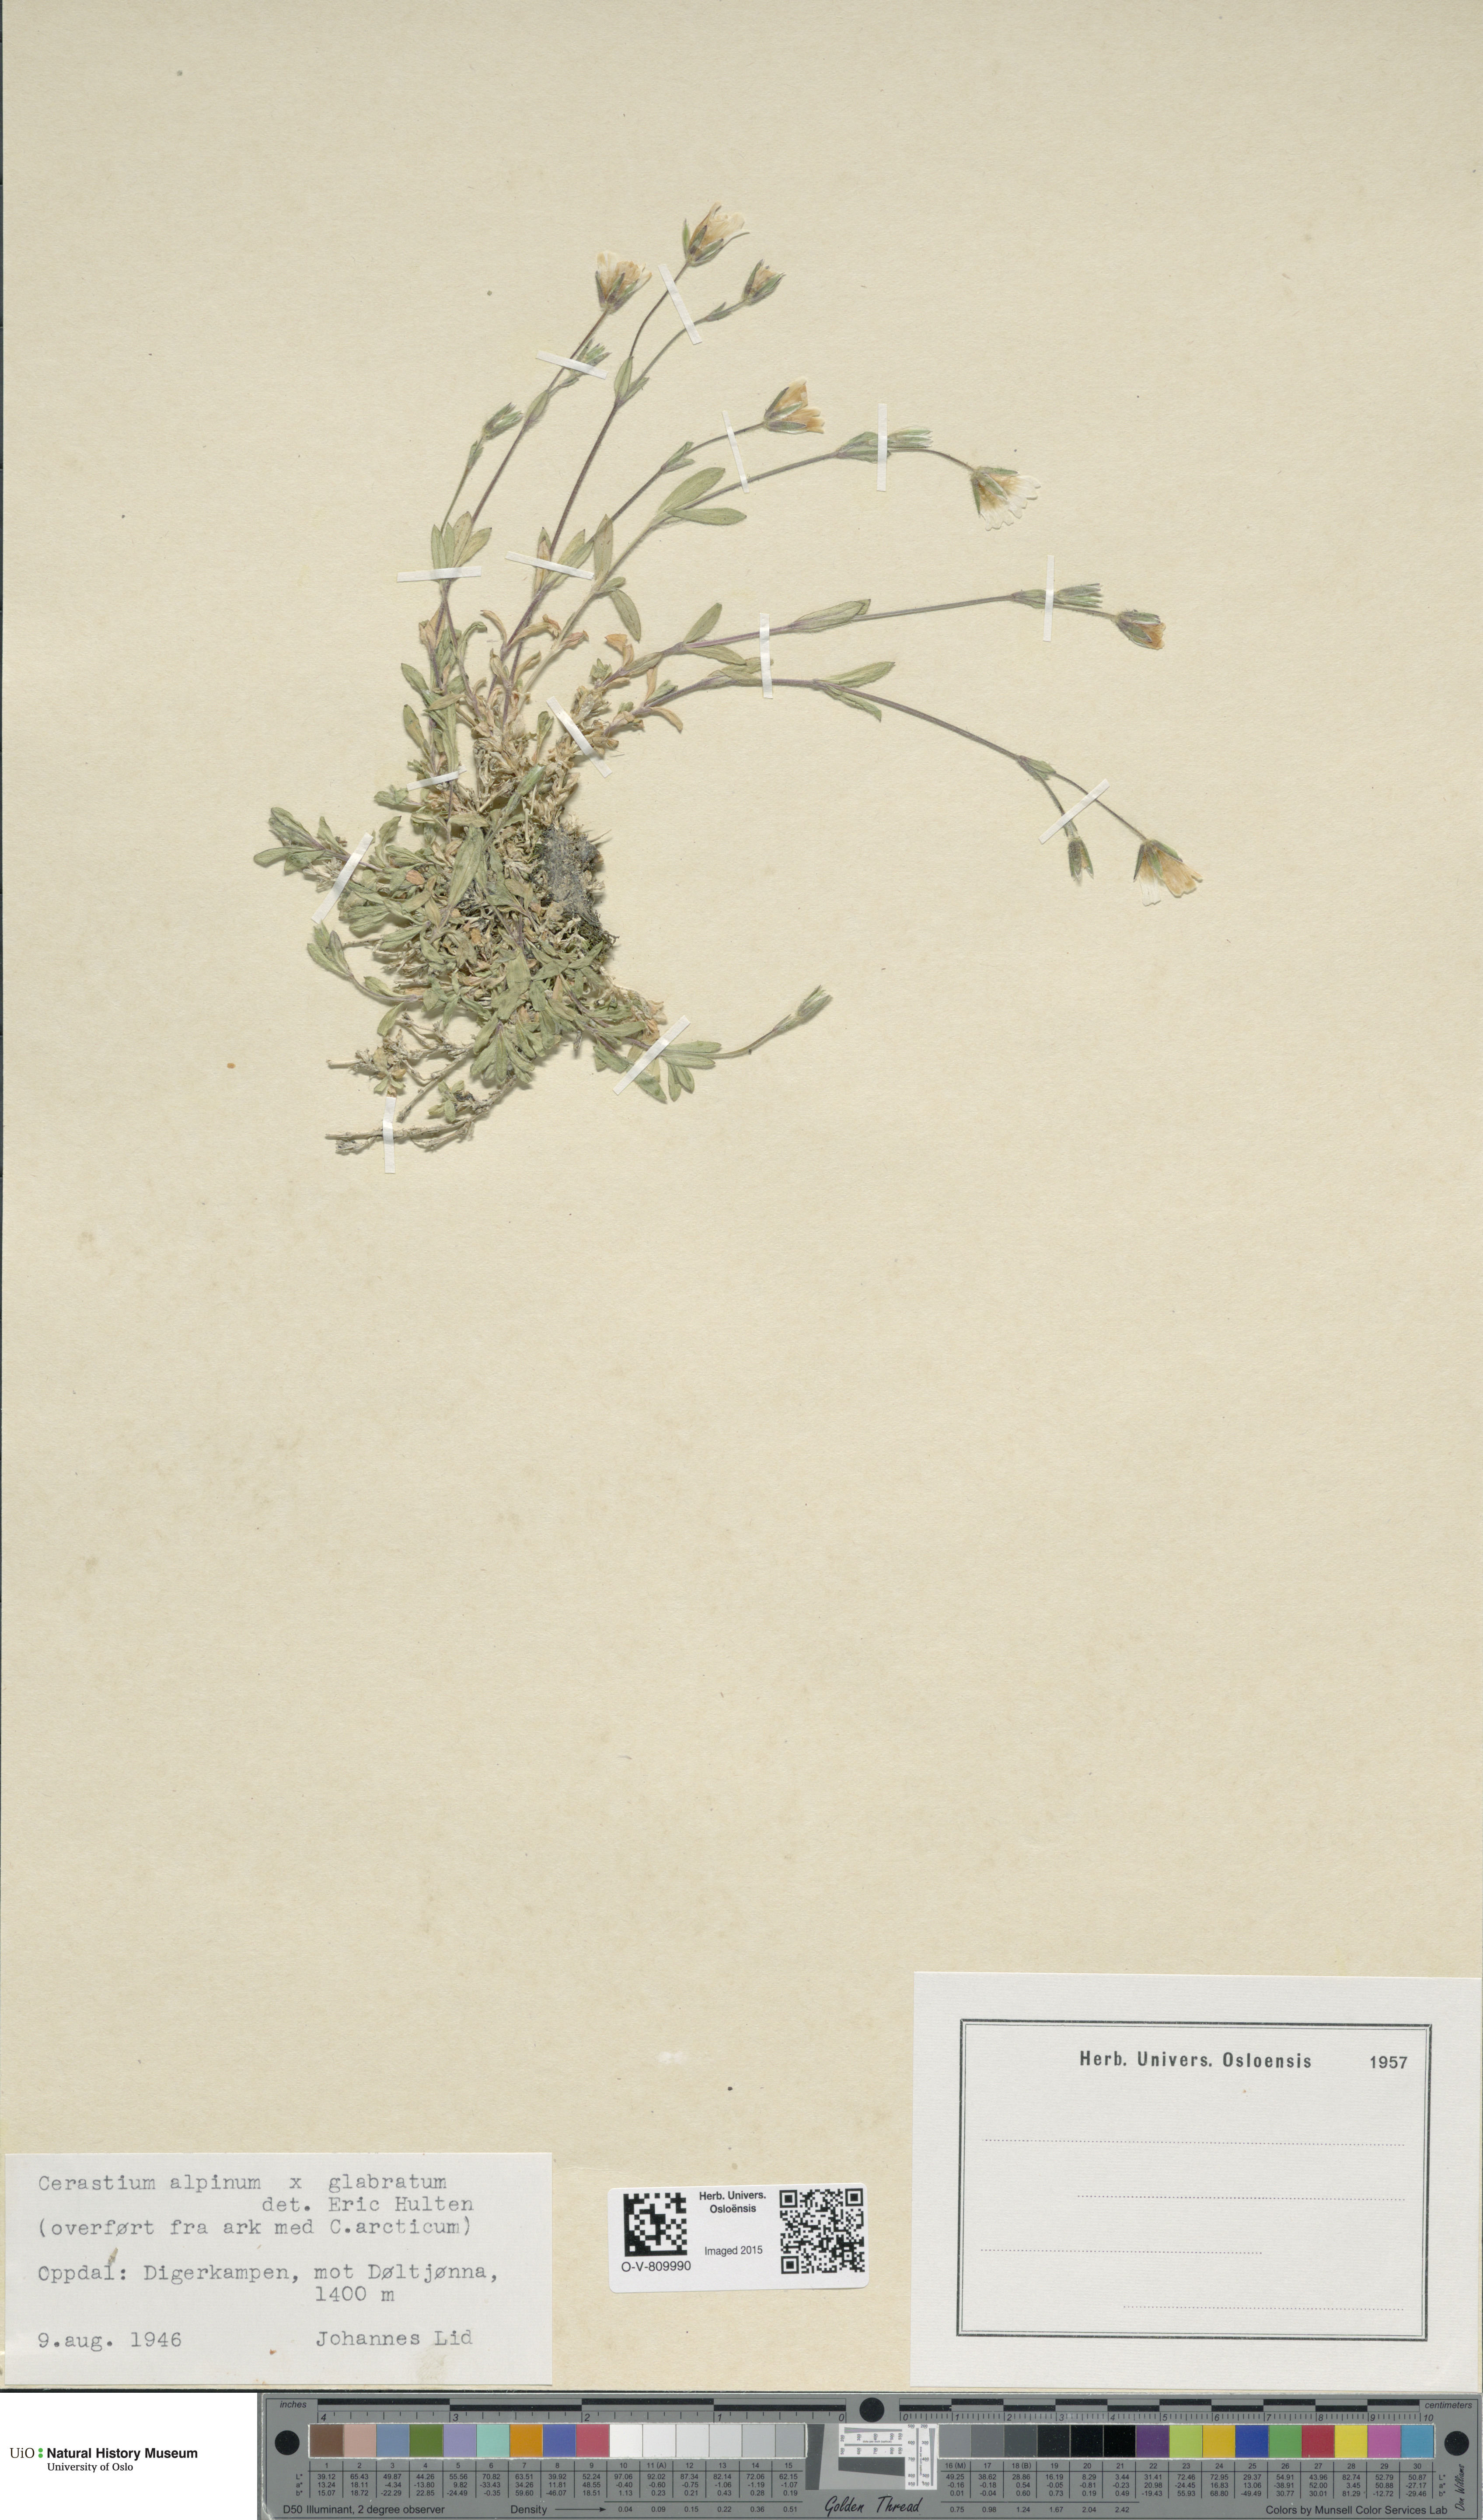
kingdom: Plantae
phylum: Tracheophyta
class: Magnoliopsida
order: Caryophyllales
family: Caryophyllaceae
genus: Cerastium
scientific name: Cerastium
